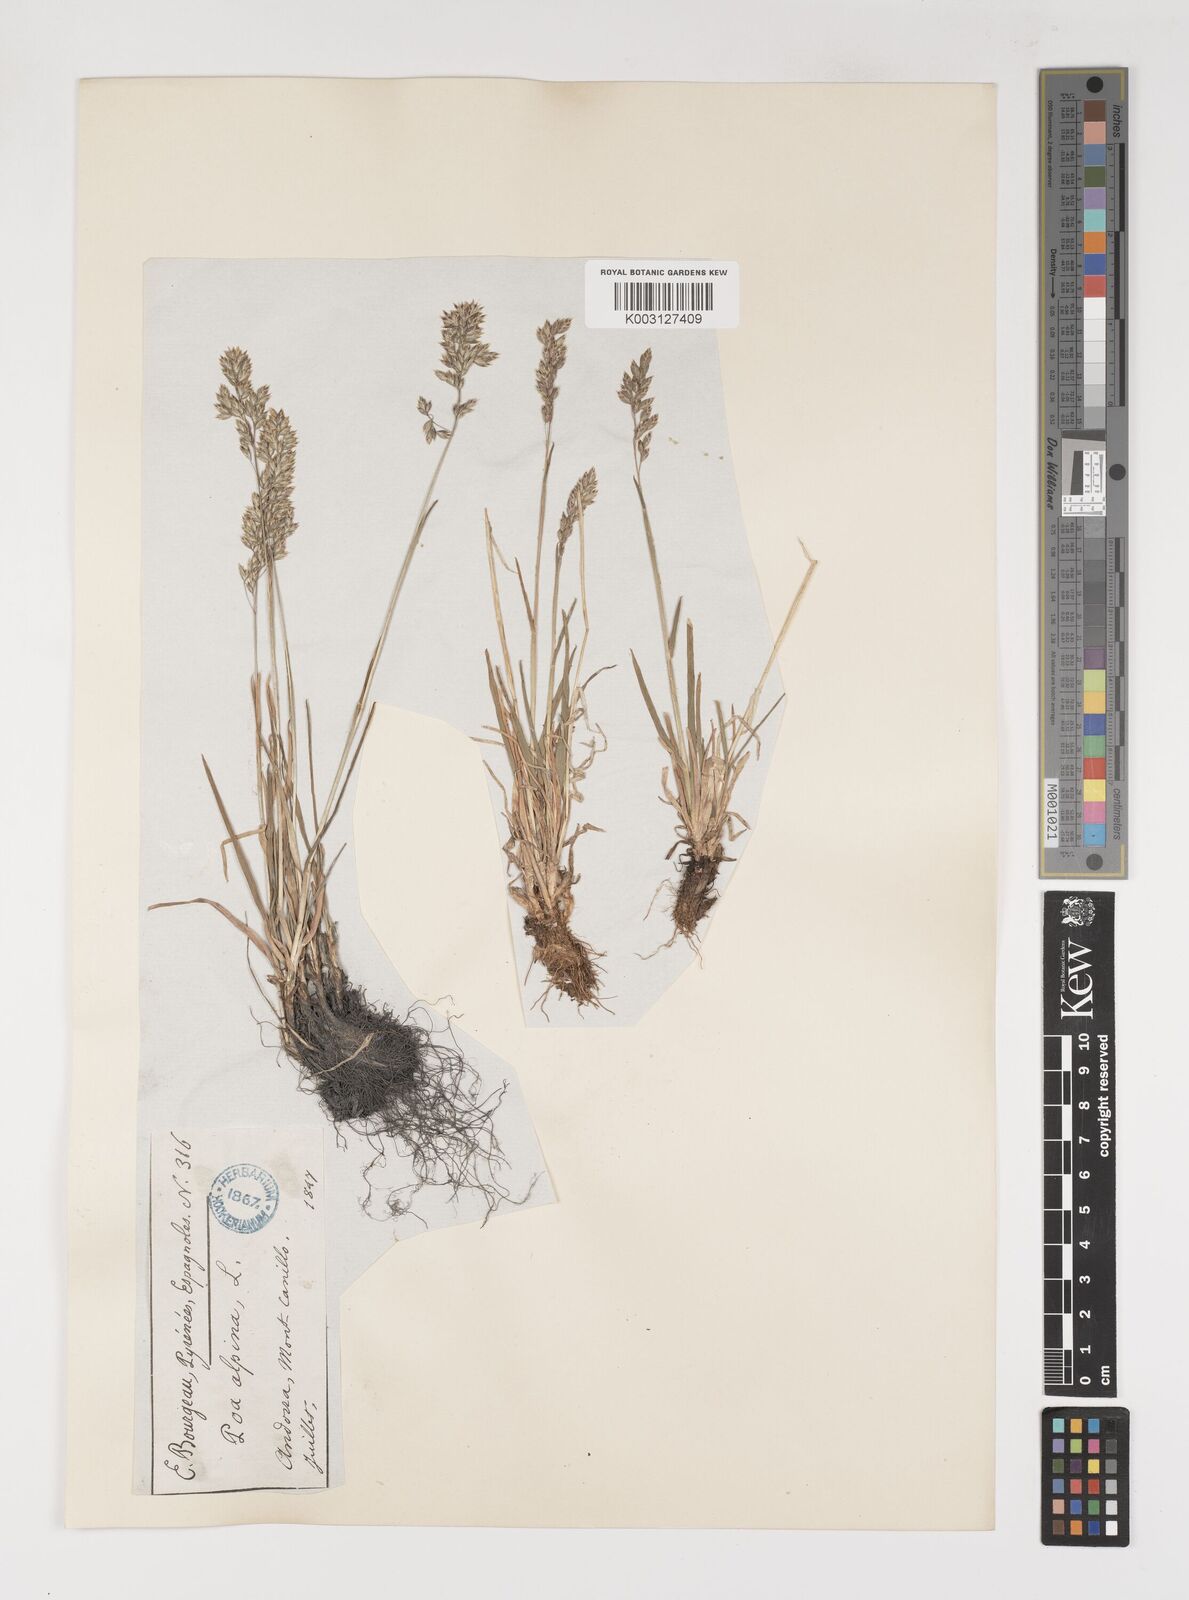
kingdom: Plantae
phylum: Tracheophyta
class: Liliopsida
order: Poales
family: Poaceae
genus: Poa
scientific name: Poa alpina
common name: Alpine bluegrass
